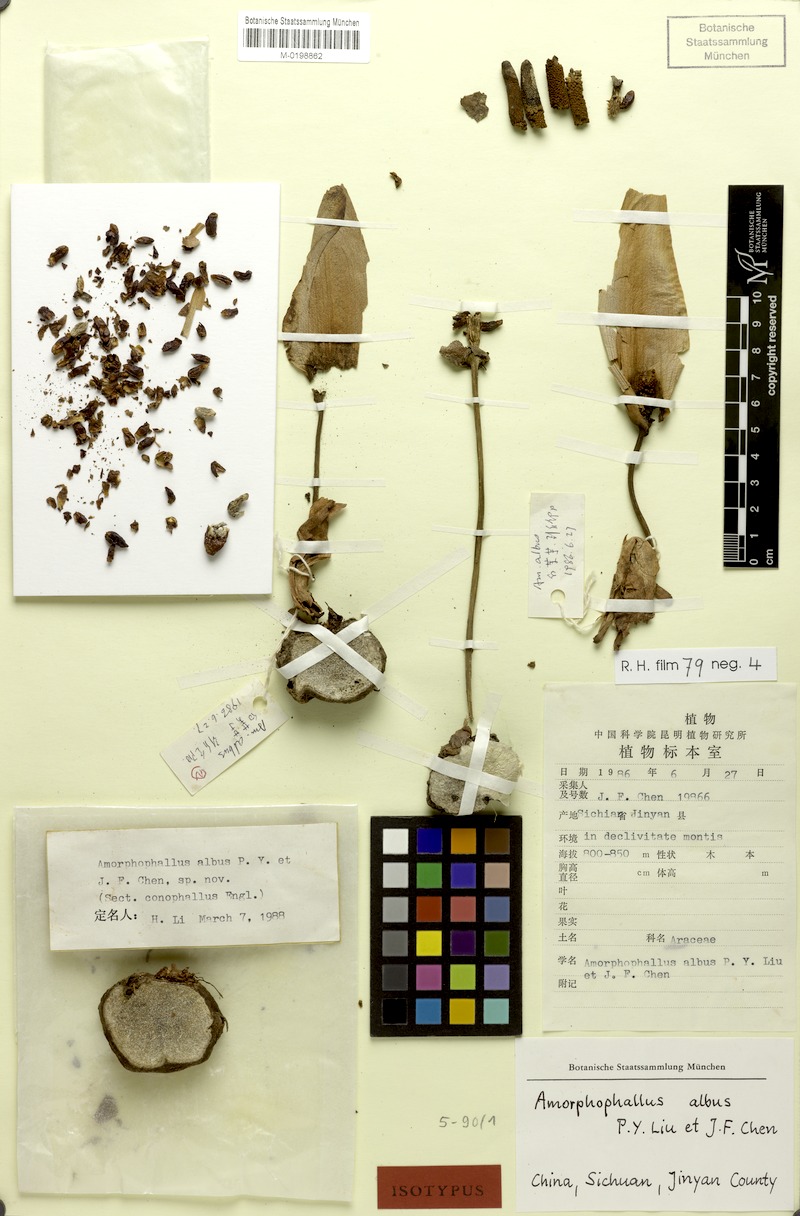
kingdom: Plantae
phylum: Tracheophyta
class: Liliopsida
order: Alismatales
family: Araceae
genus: Amorphophallus
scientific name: Amorphophallus albus
